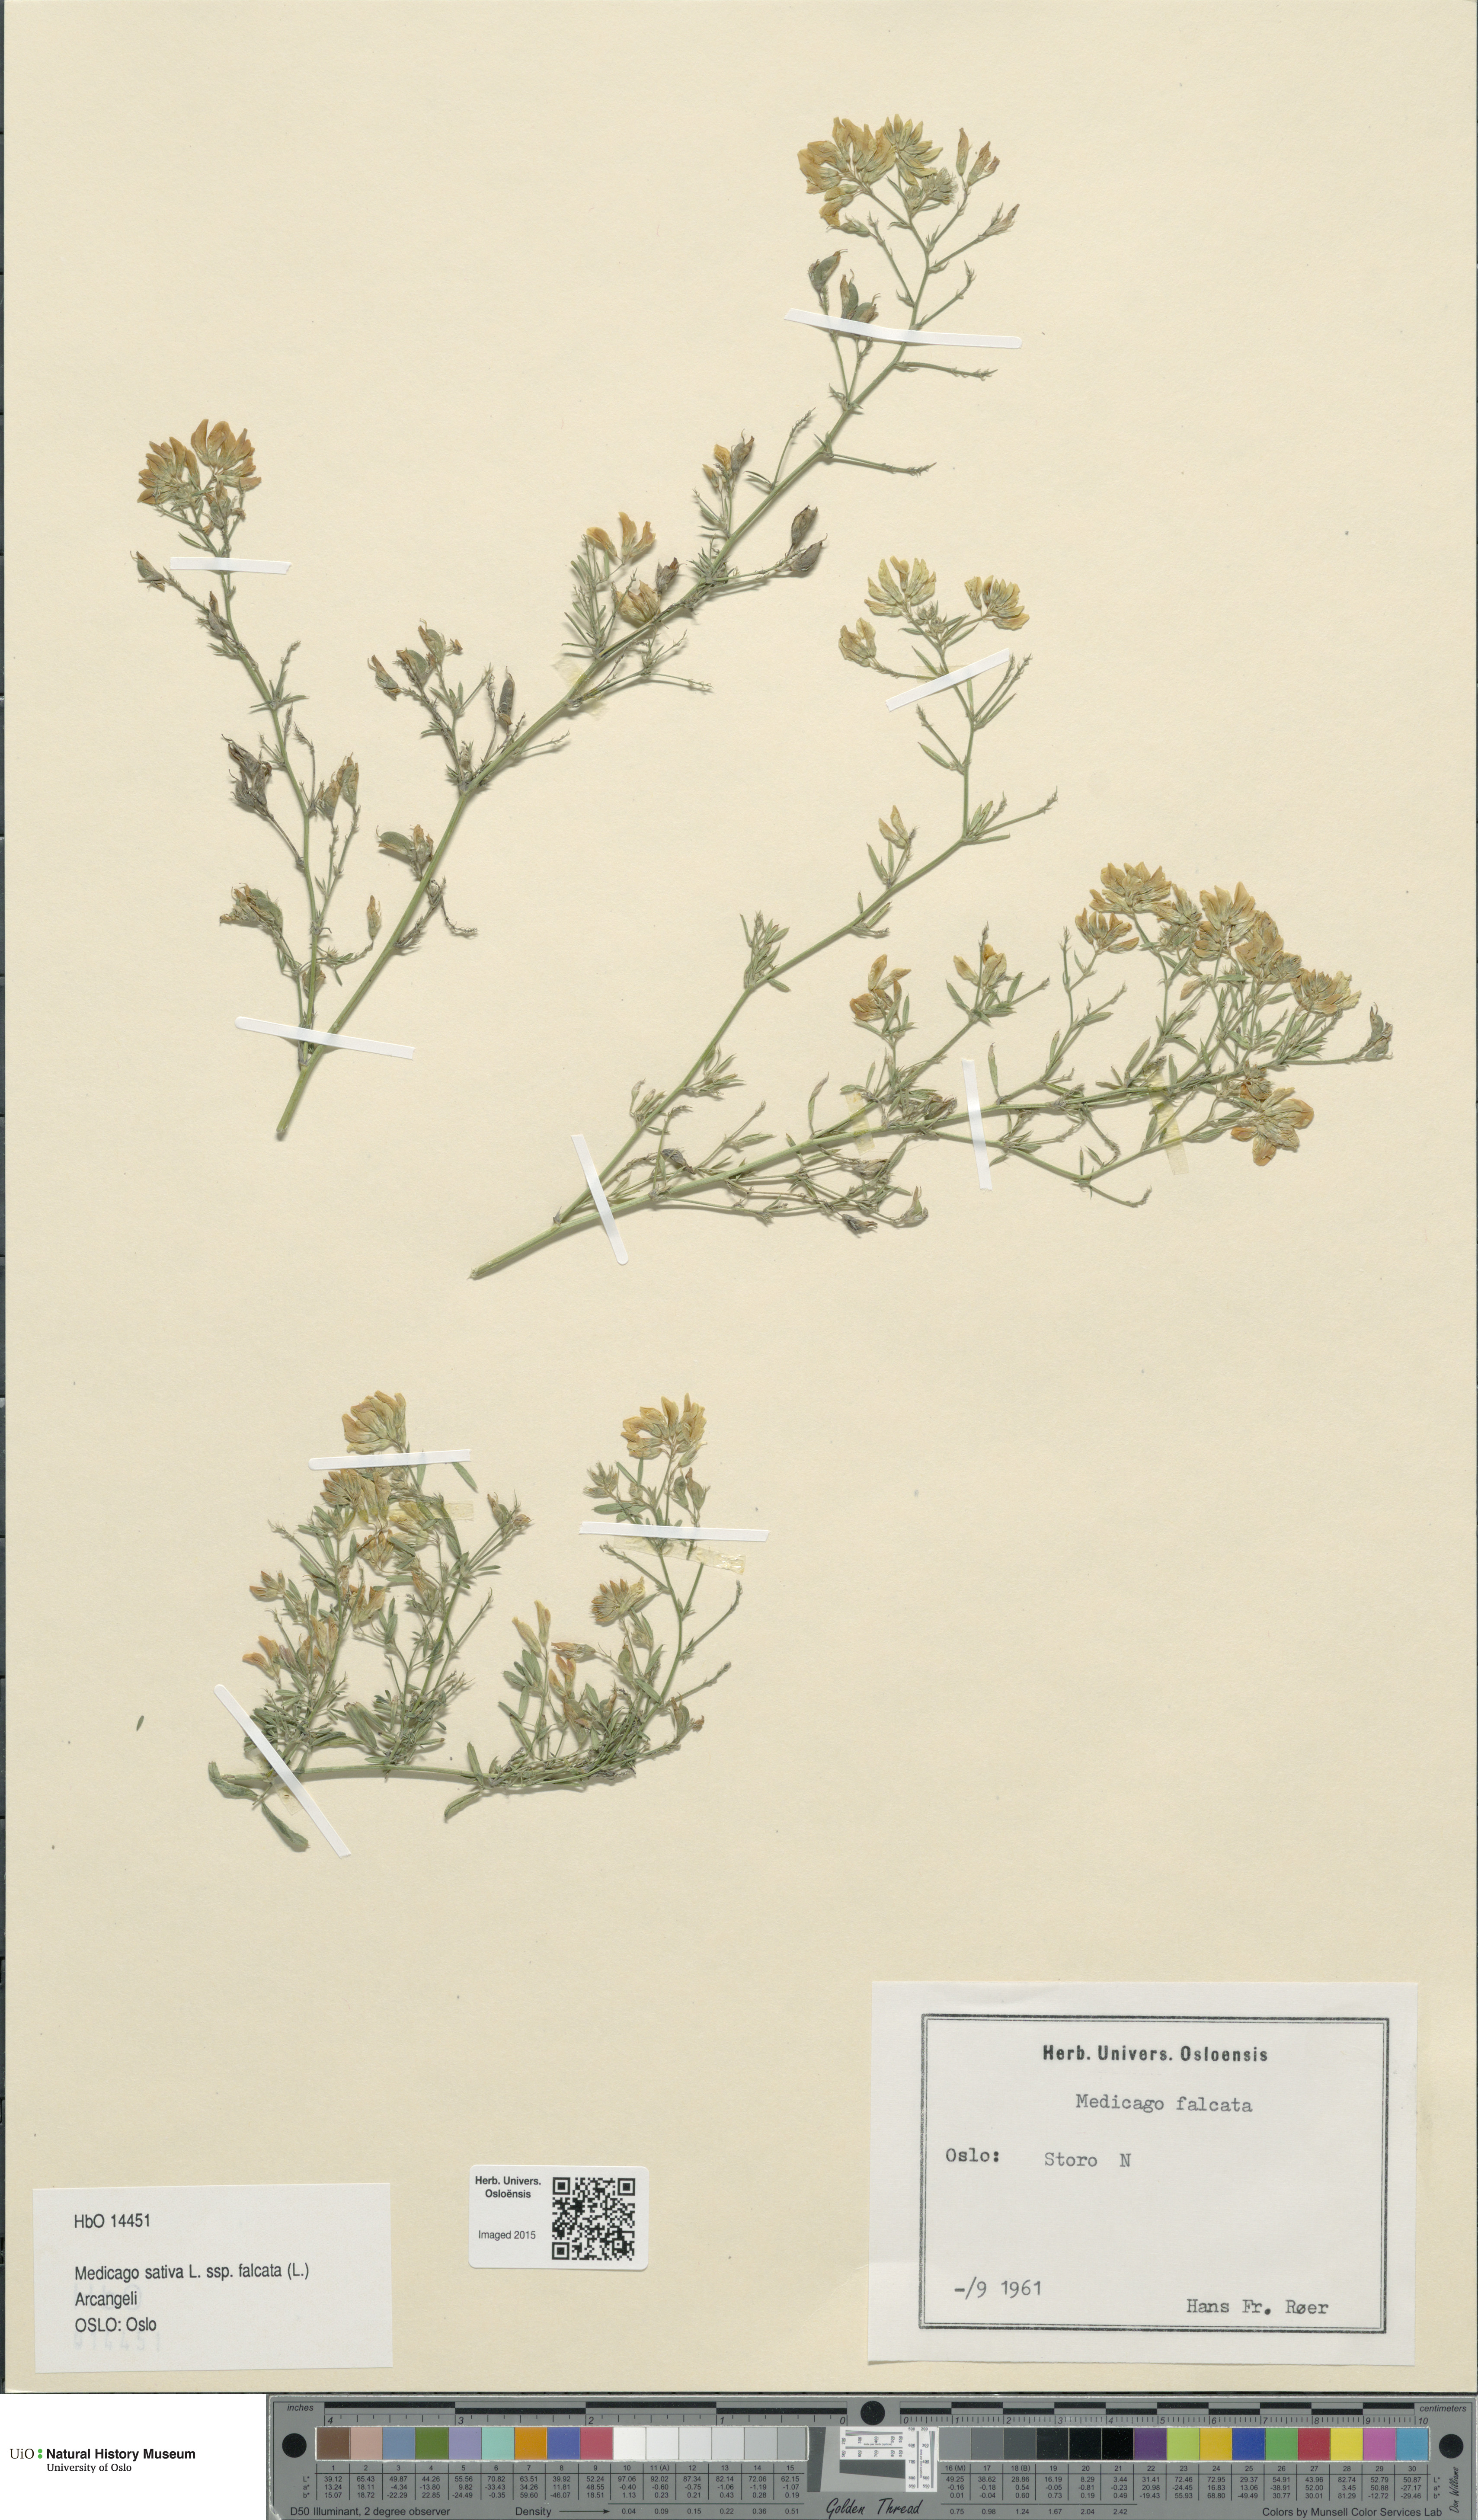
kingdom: Plantae
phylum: Tracheophyta
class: Magnoliopsida
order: Fabales
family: Fabaceae
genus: Medicago
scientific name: Medicago falcata
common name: Sickle medick
